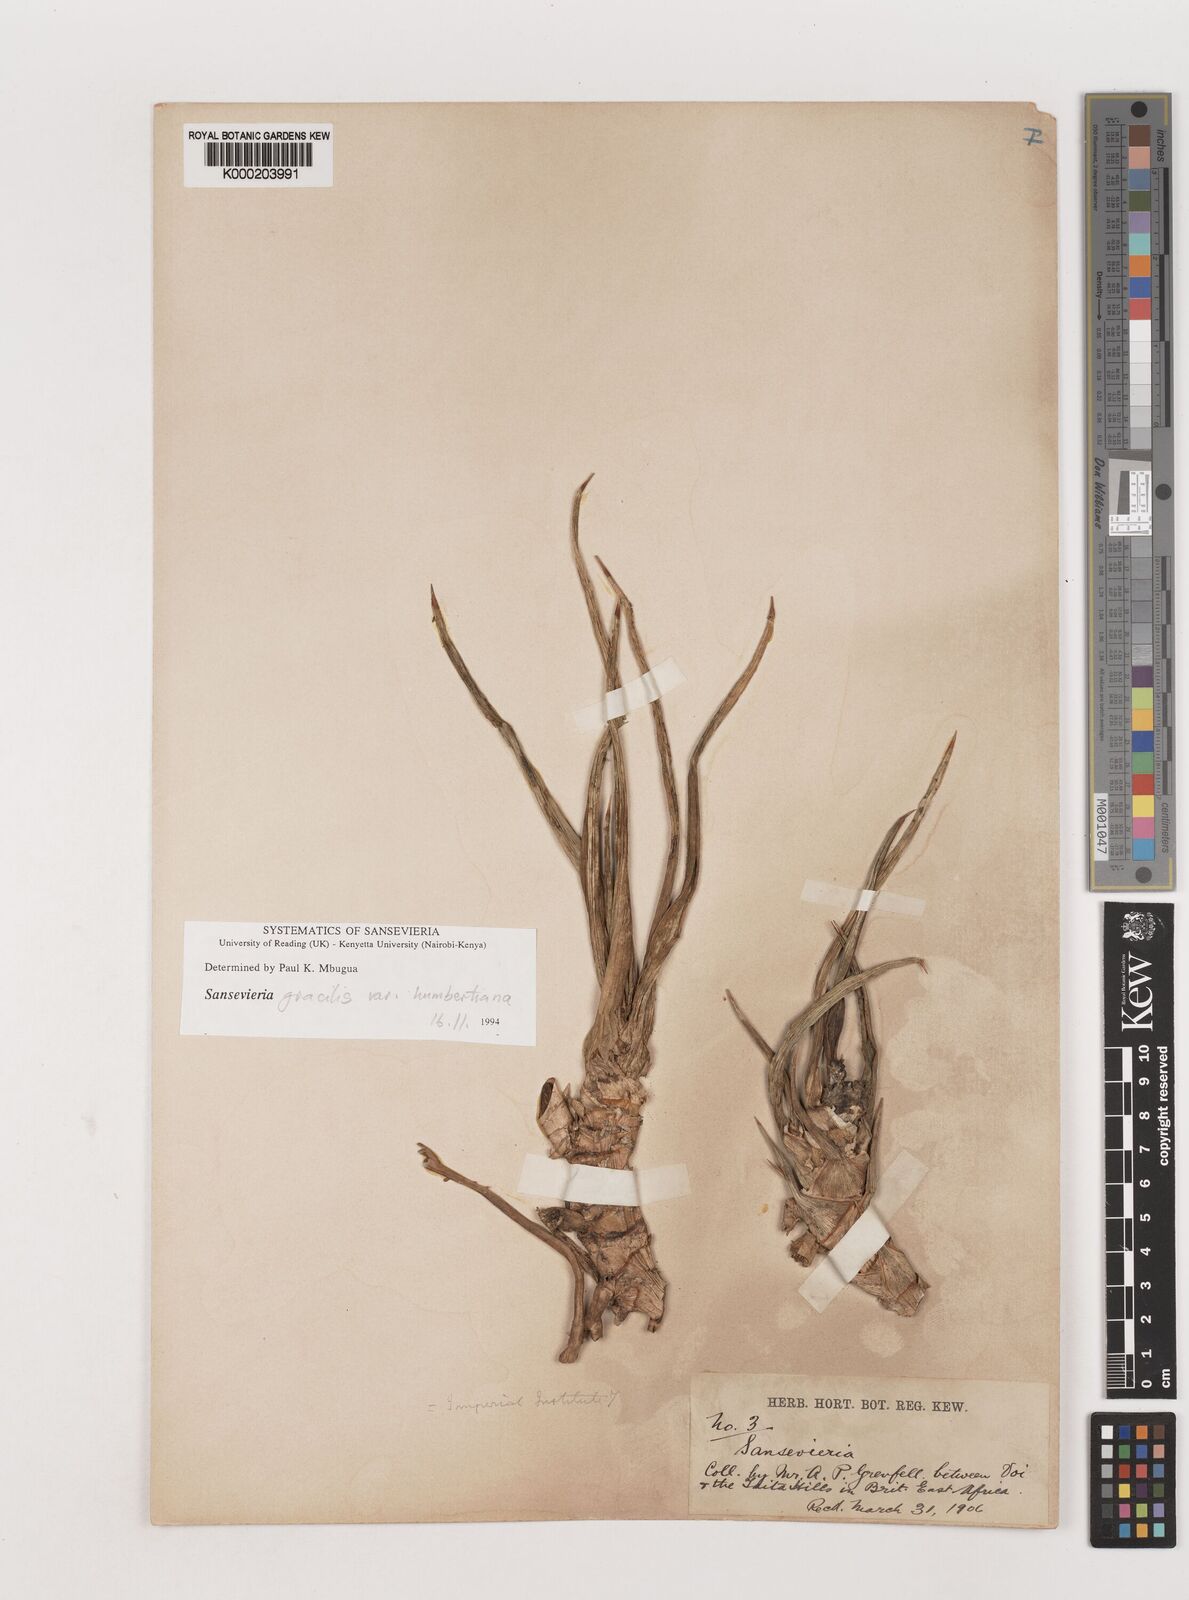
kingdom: Plantae
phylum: Tracheophyta
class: Liliopsida
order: Asparagales
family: Asparagaceae
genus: Dracaena
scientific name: Dracaena
